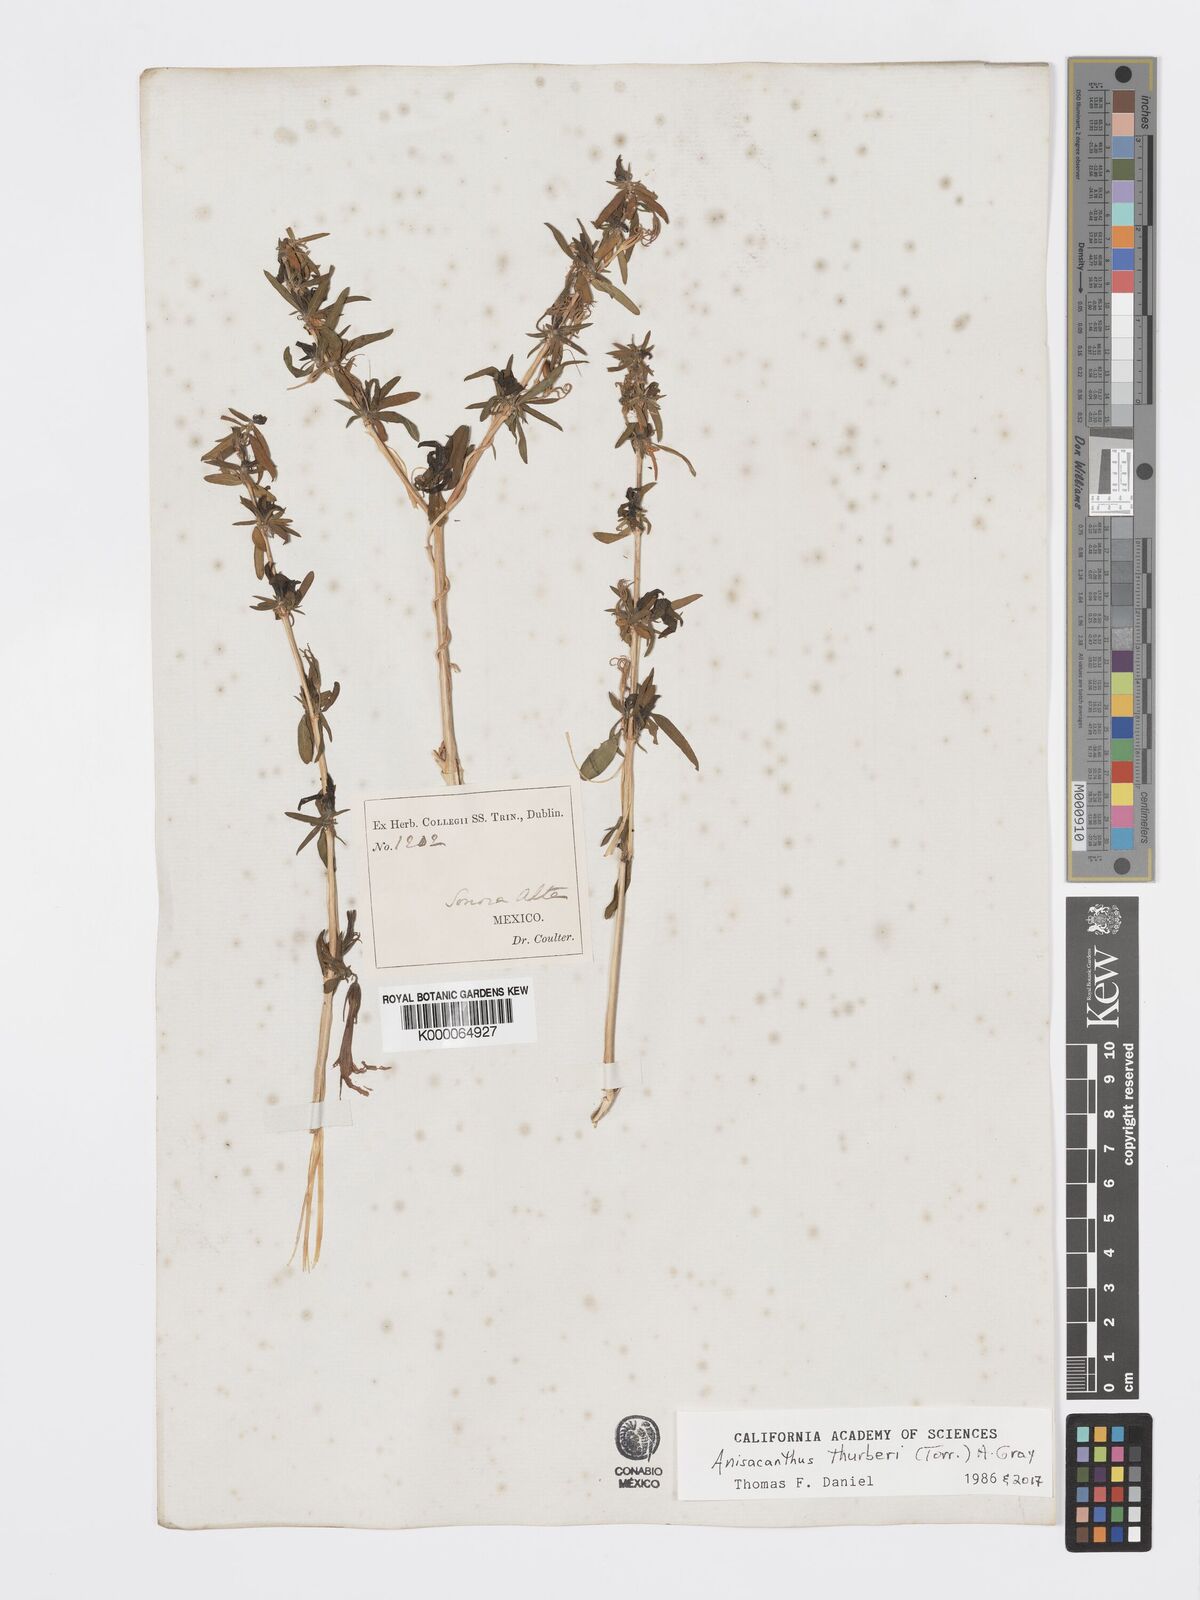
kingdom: Plantae
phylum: Tracheophyta
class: Magnoliopsida
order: Lamiales
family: Acanthaceae
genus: Anisacanthus
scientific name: Anisacanthus
